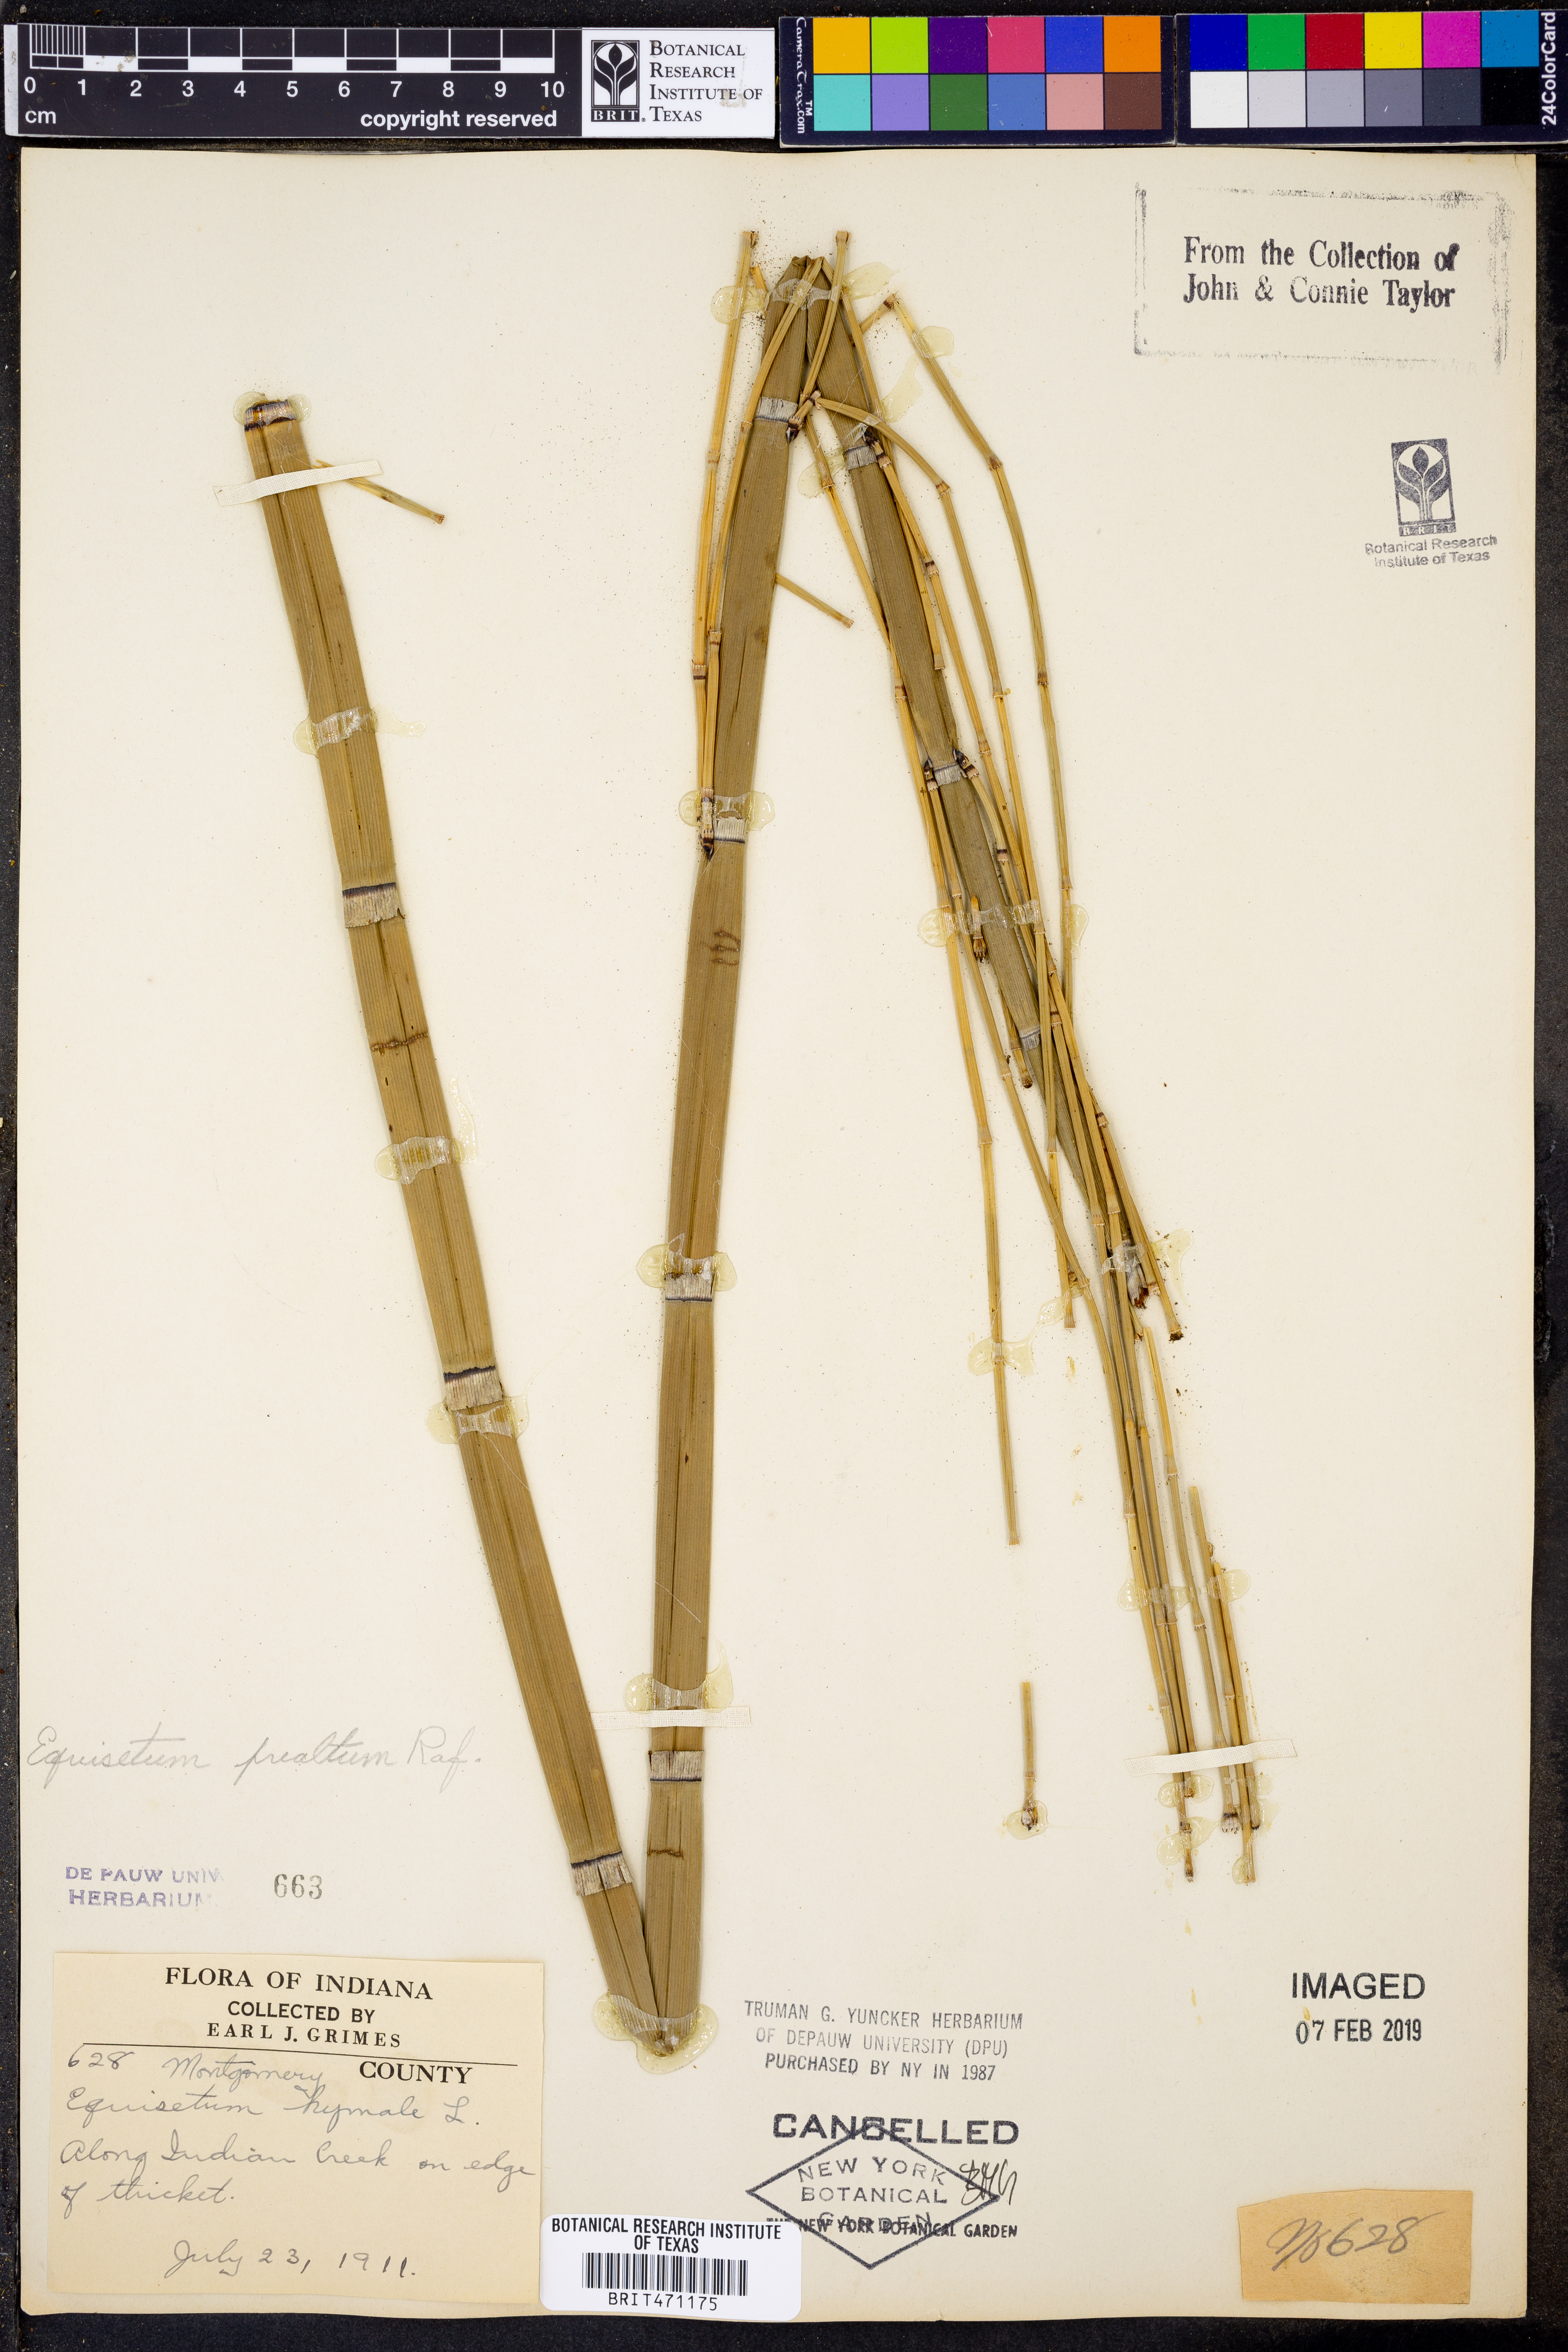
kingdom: Plantae
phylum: Tracheophyta
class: Polypodiopsida
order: Equisetales
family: Equisetaceae
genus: Equisetum
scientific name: Equisetum hyemale
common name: Rough horsetail
